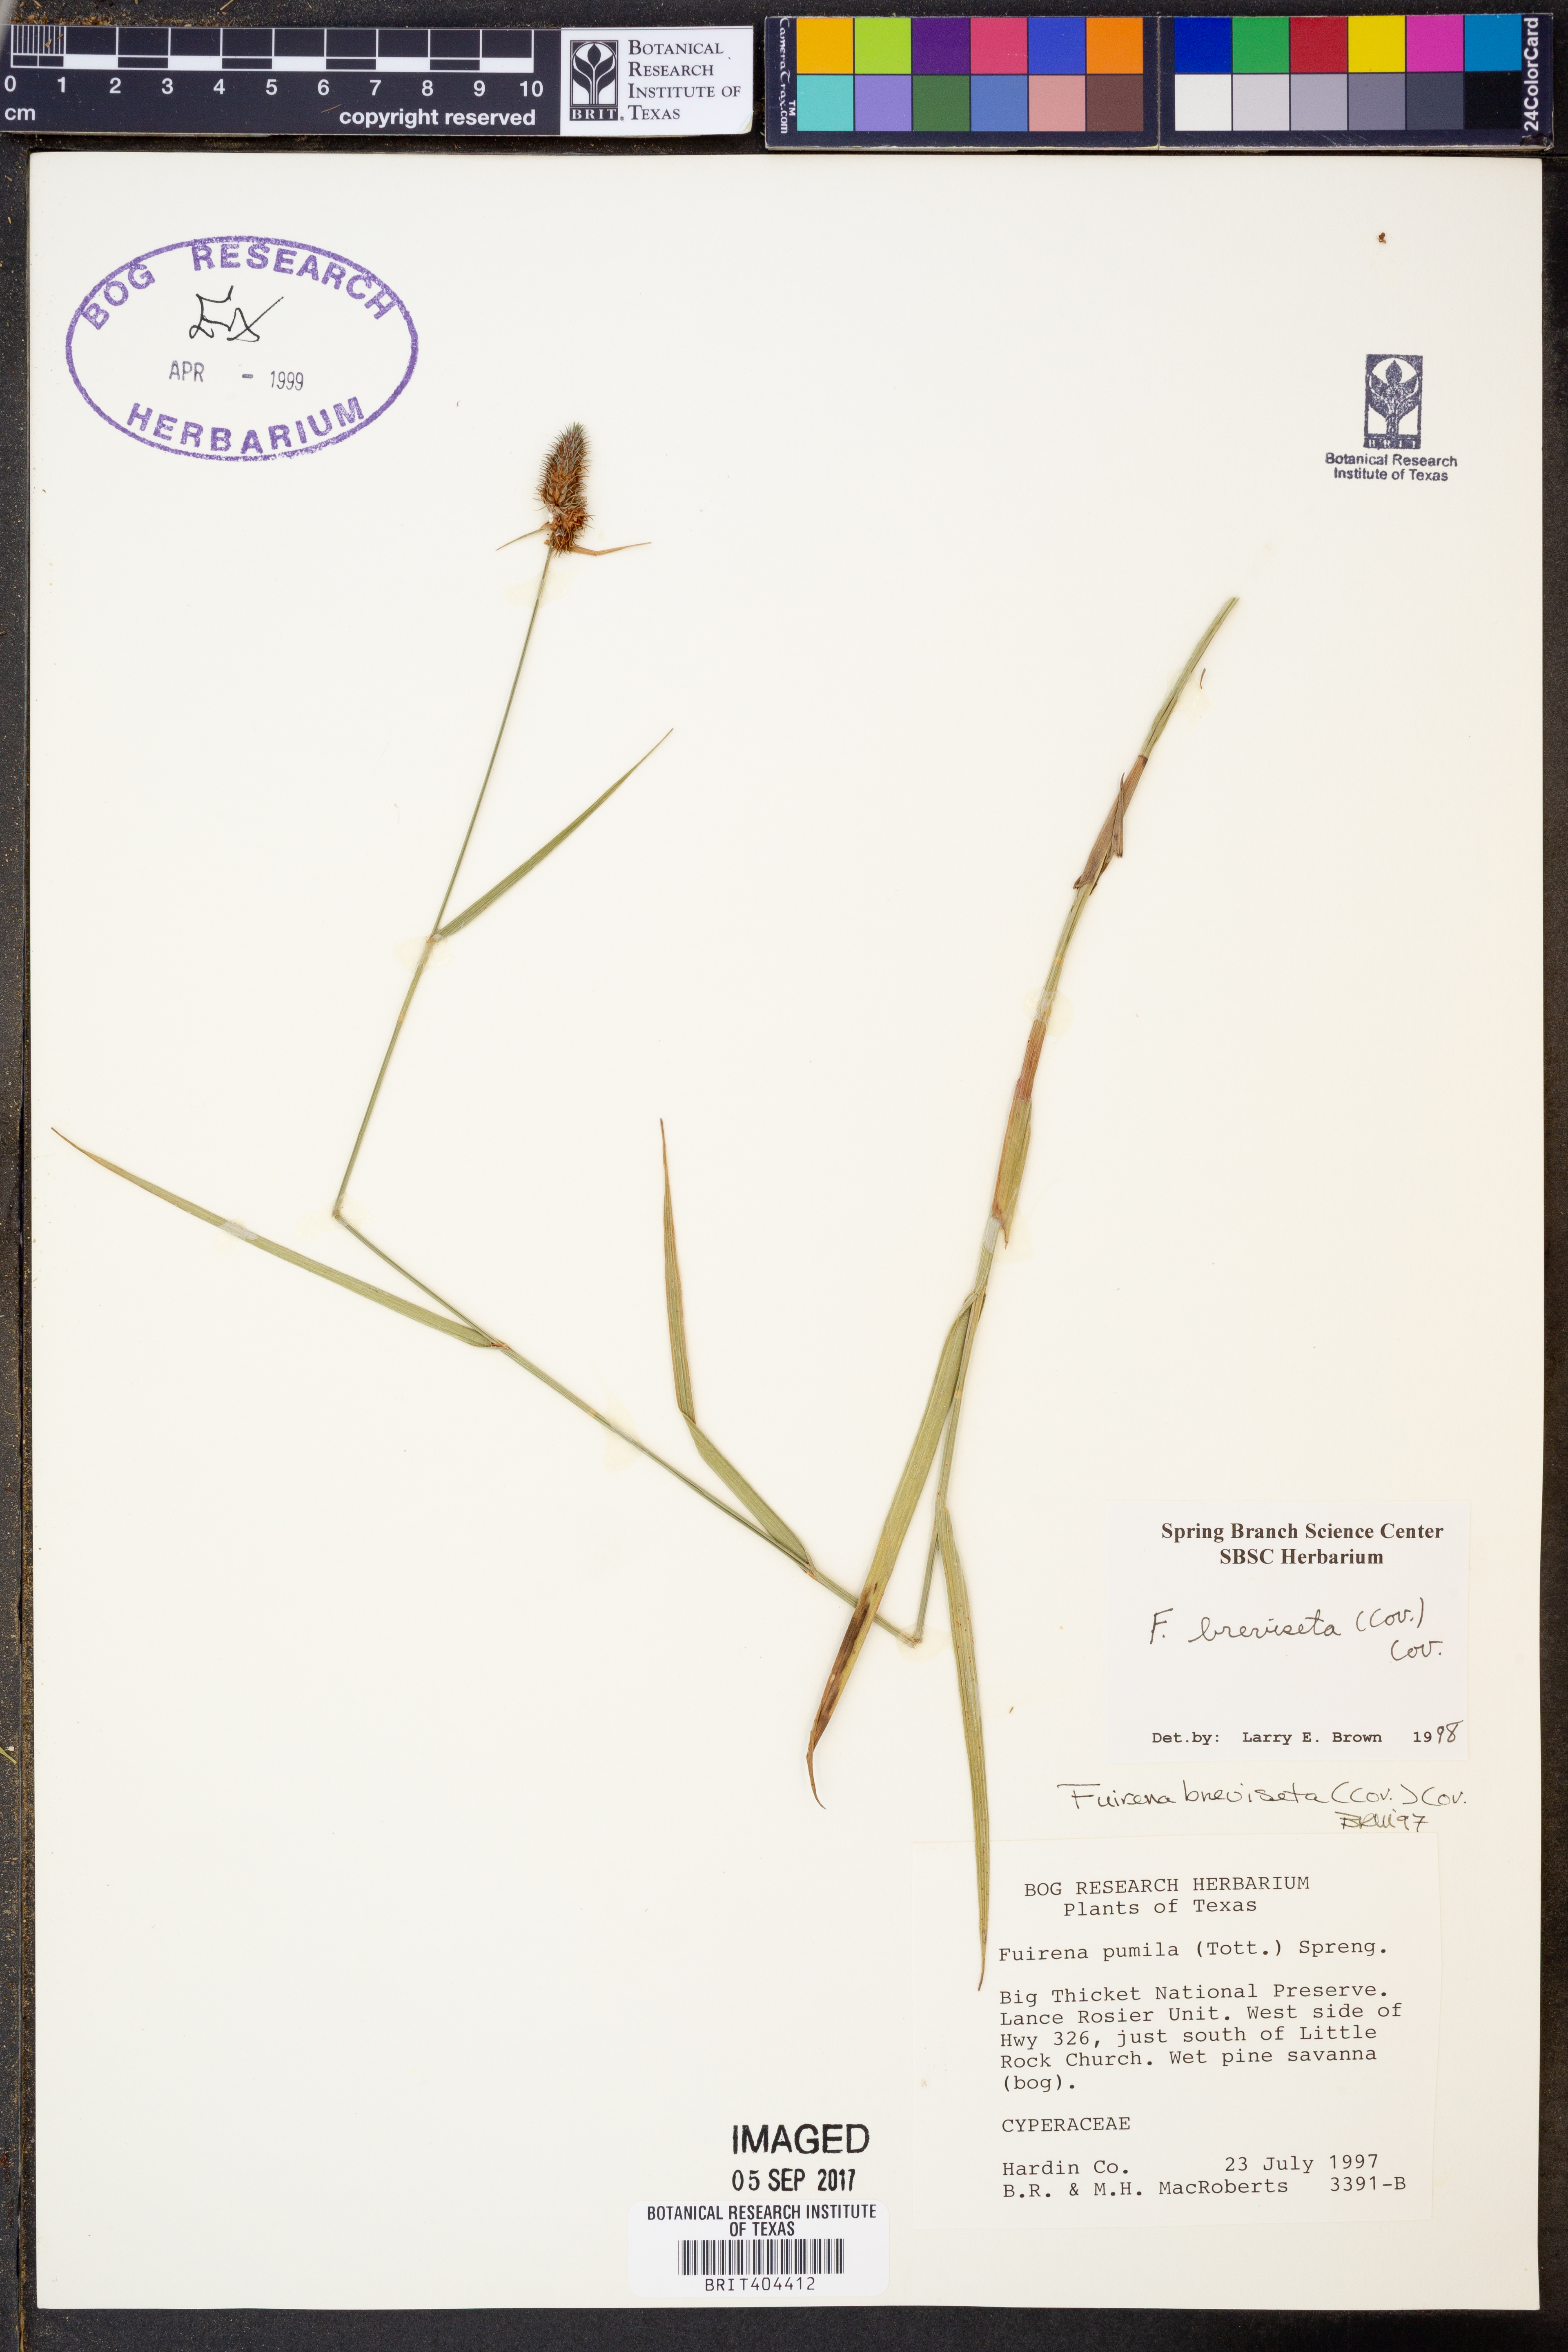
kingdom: Plantae
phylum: Tracheophyta
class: Liliopsida
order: Poales
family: Cyperaceae
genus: Fuirena
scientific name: Fuirena breviseta
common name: Saltmarsh umbrella sedge
